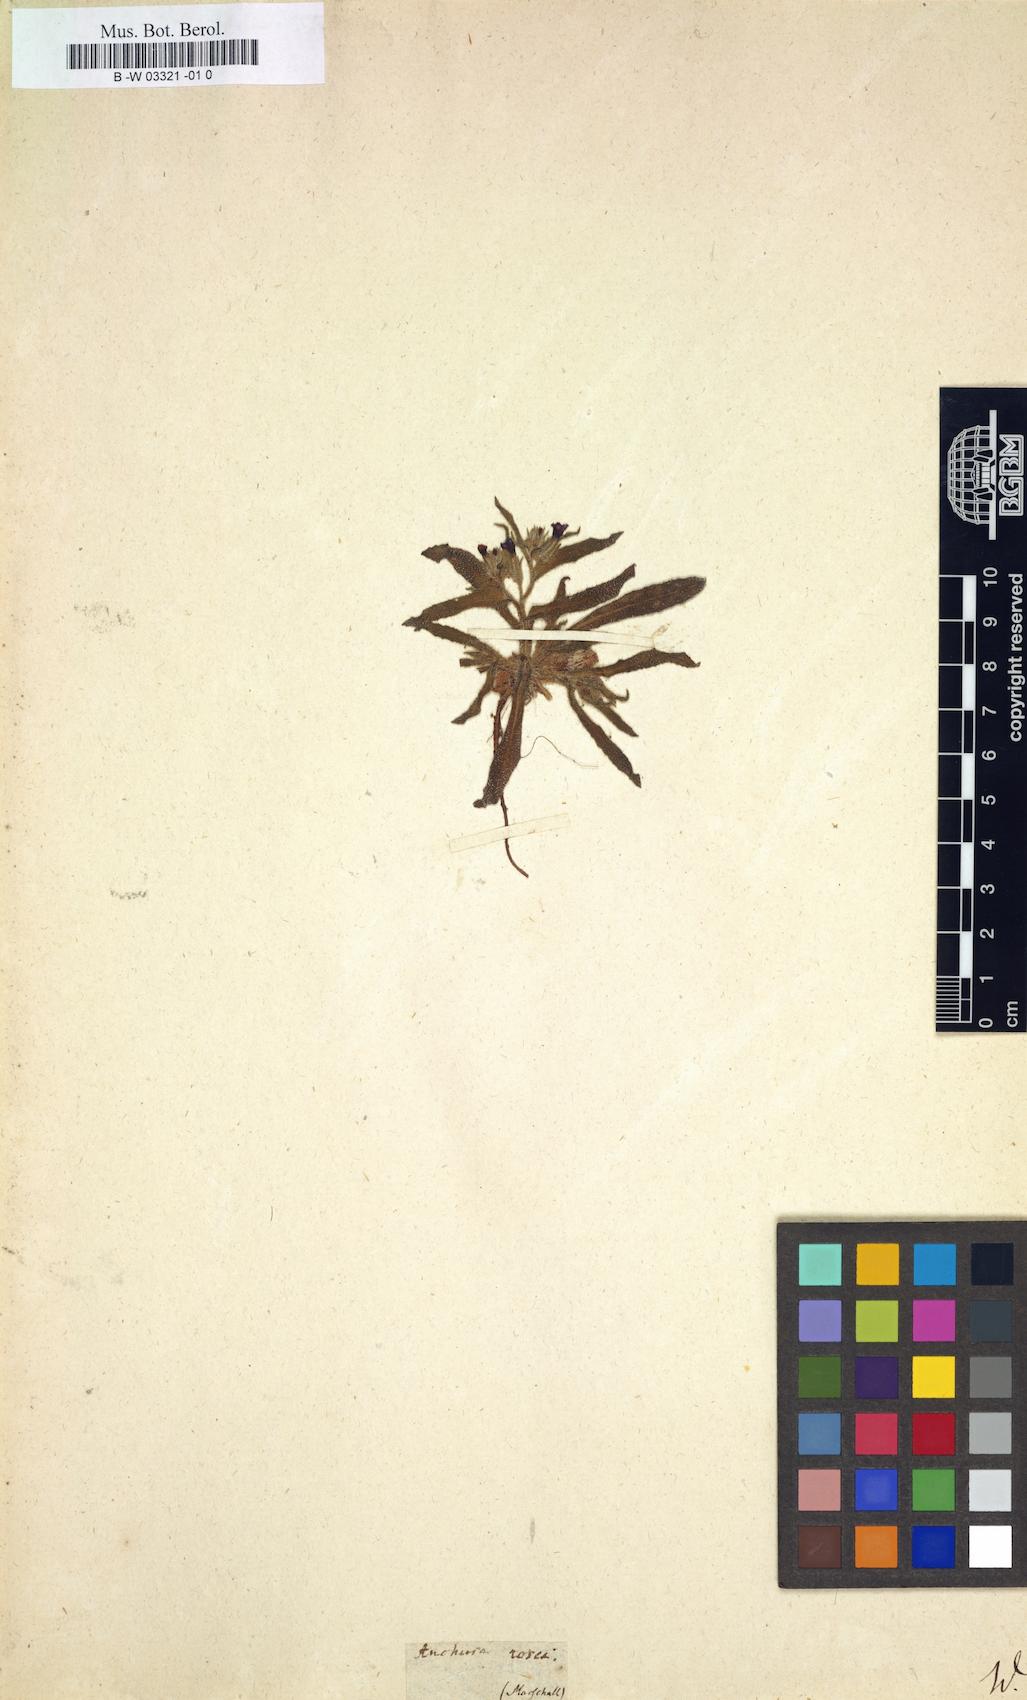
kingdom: Plantae
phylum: Tracheophyta
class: Magnoliopsida
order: Boraginales
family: Boraginaceae
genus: Nonea
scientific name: Nonea rosea
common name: Pink nonea
